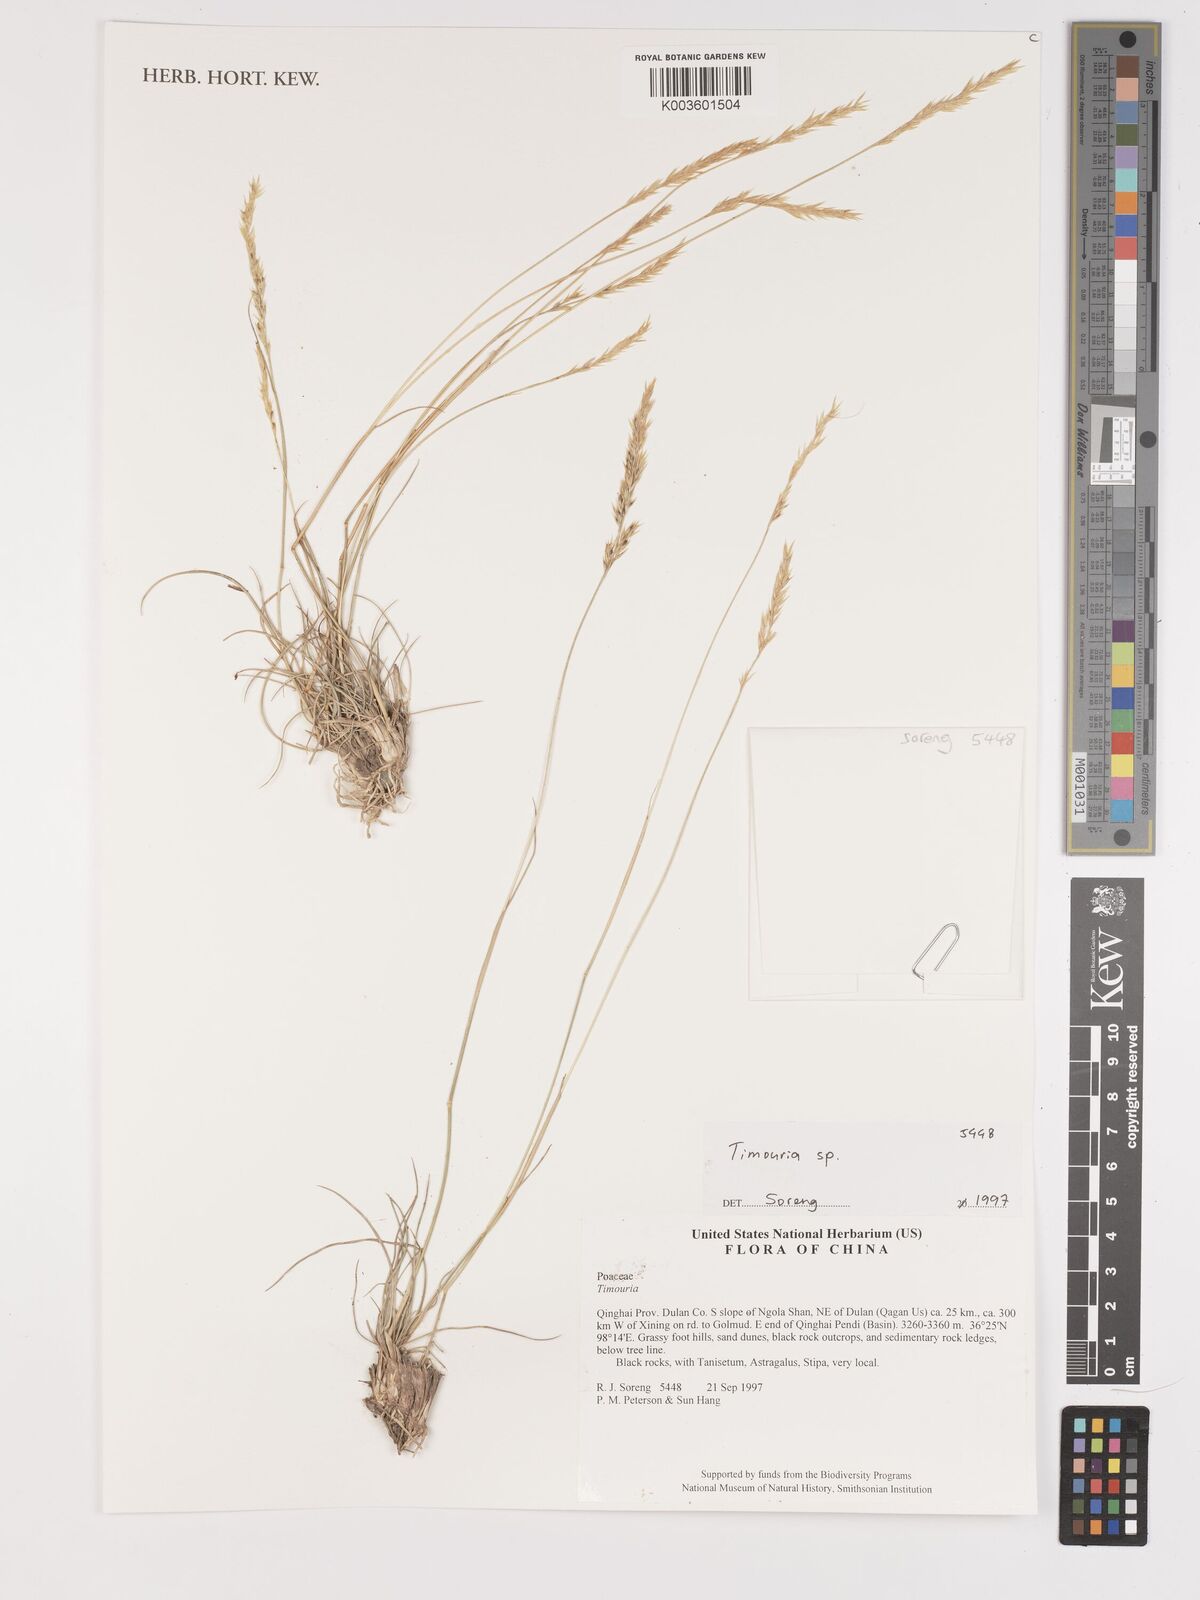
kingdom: Plantae
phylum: Tracheophyta
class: Liliopsida
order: Poales
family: Poaceae
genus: Stipa
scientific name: Stipa
